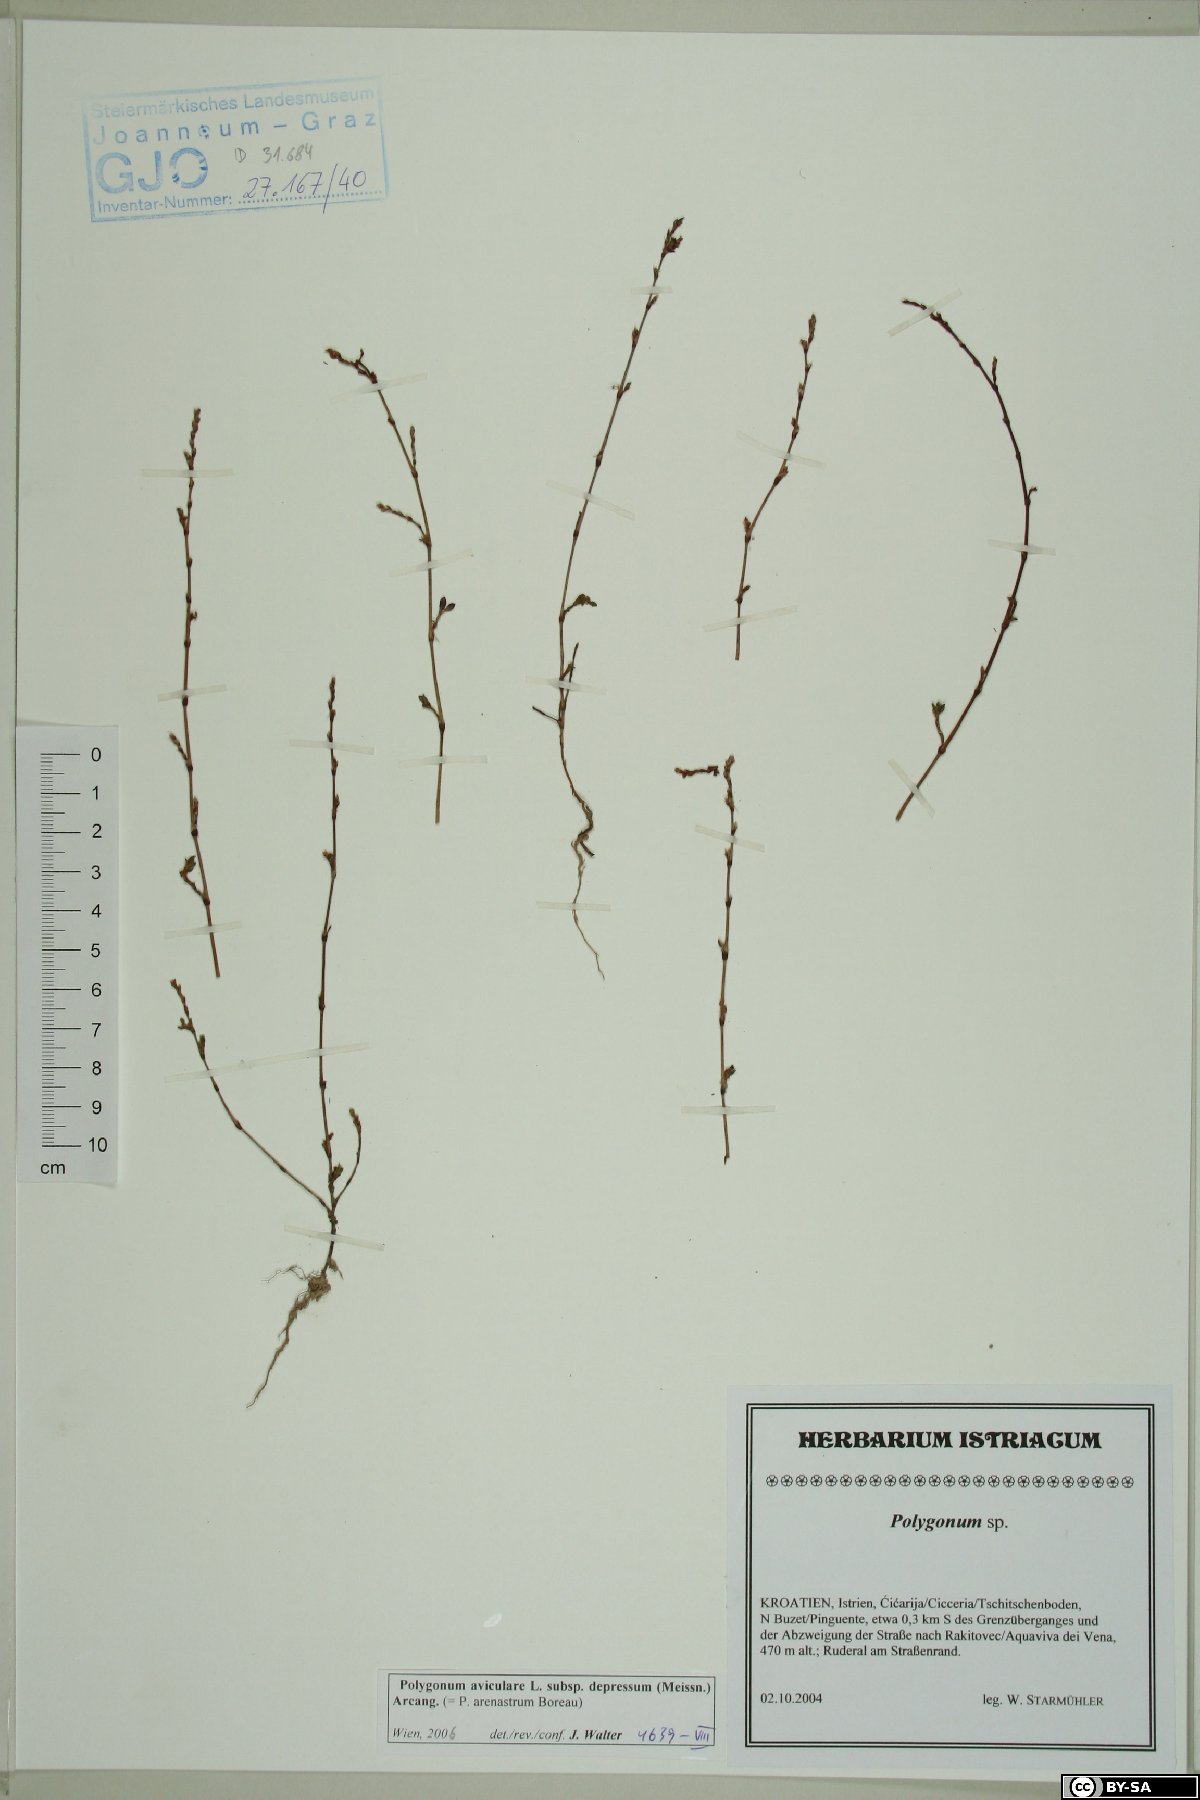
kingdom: Plantae
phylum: Tracheophyta
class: Magnoliopsida
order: Caryophyllales
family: Polygonaceae
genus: Polygonum
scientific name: Polygonum arenastrum
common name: Equal-leaved knotgrass
